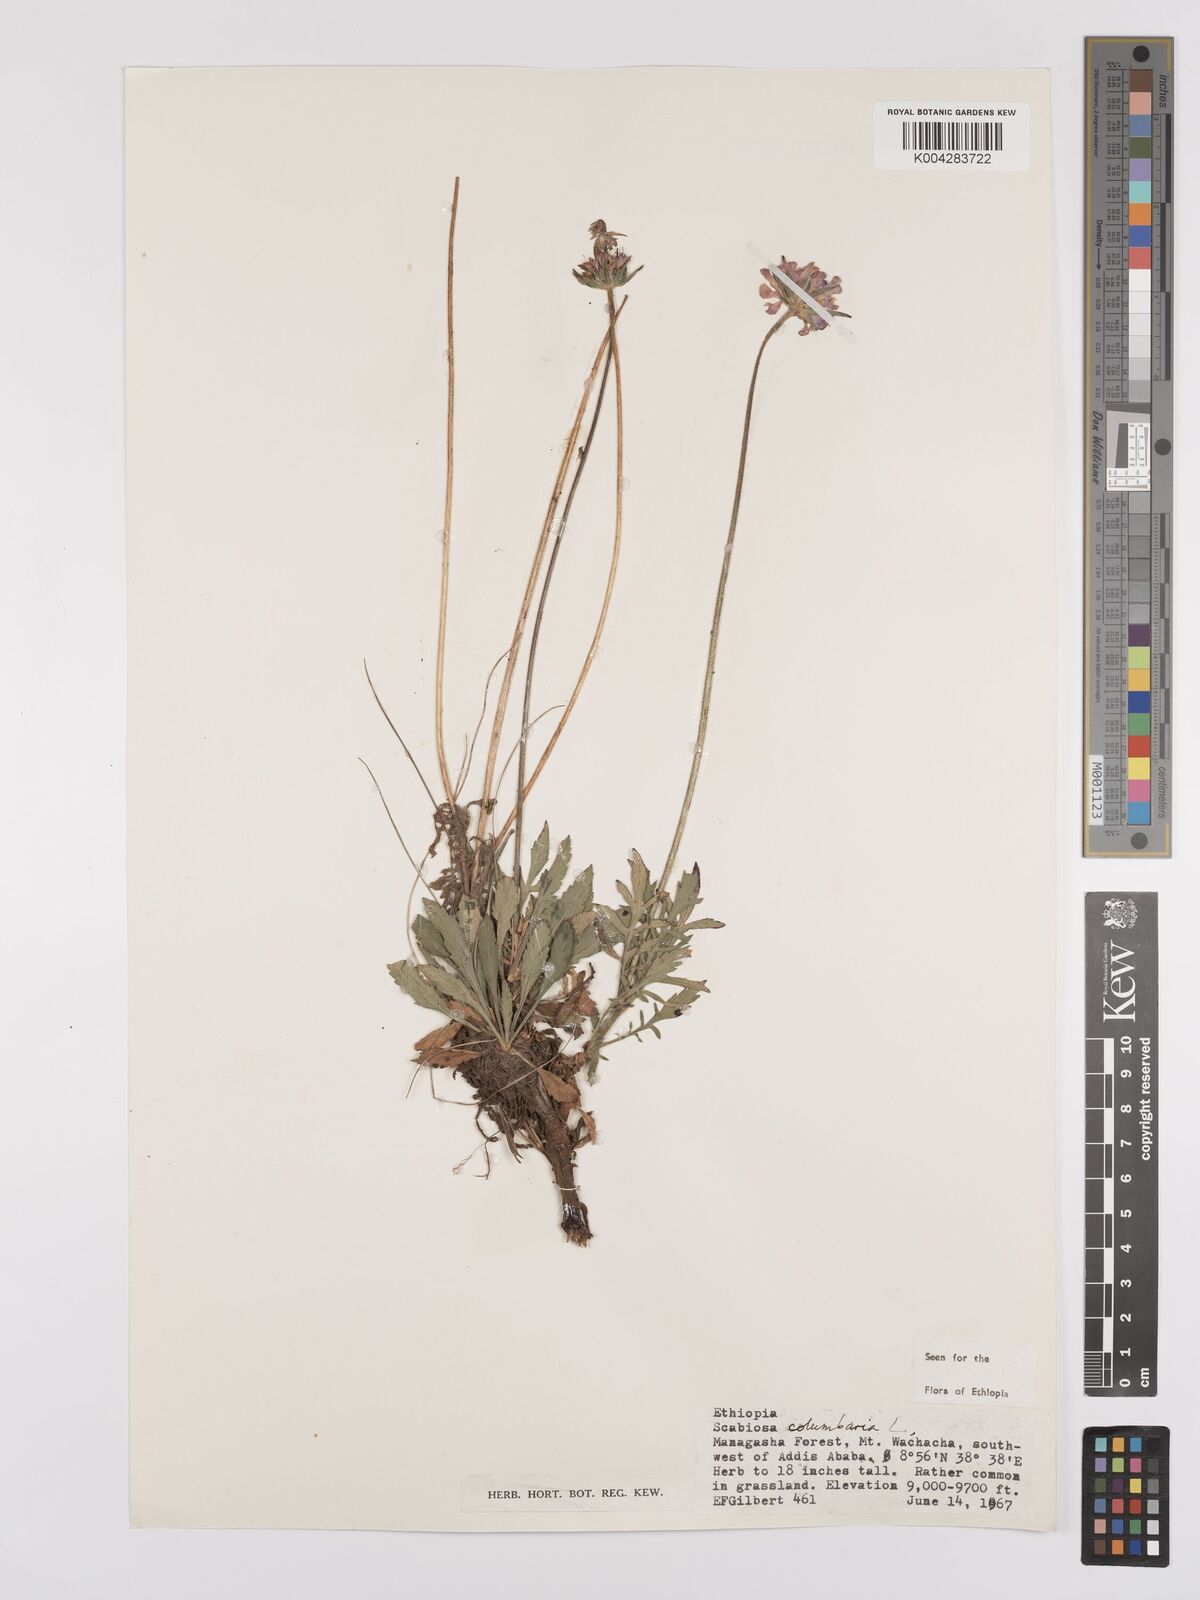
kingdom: Plantae
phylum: Tracheophyta
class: Magnoliopsida
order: Dipsacales
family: Caprifoliaceae
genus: Scabiosa
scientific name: Scabiosa columbaria
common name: Small scabious
